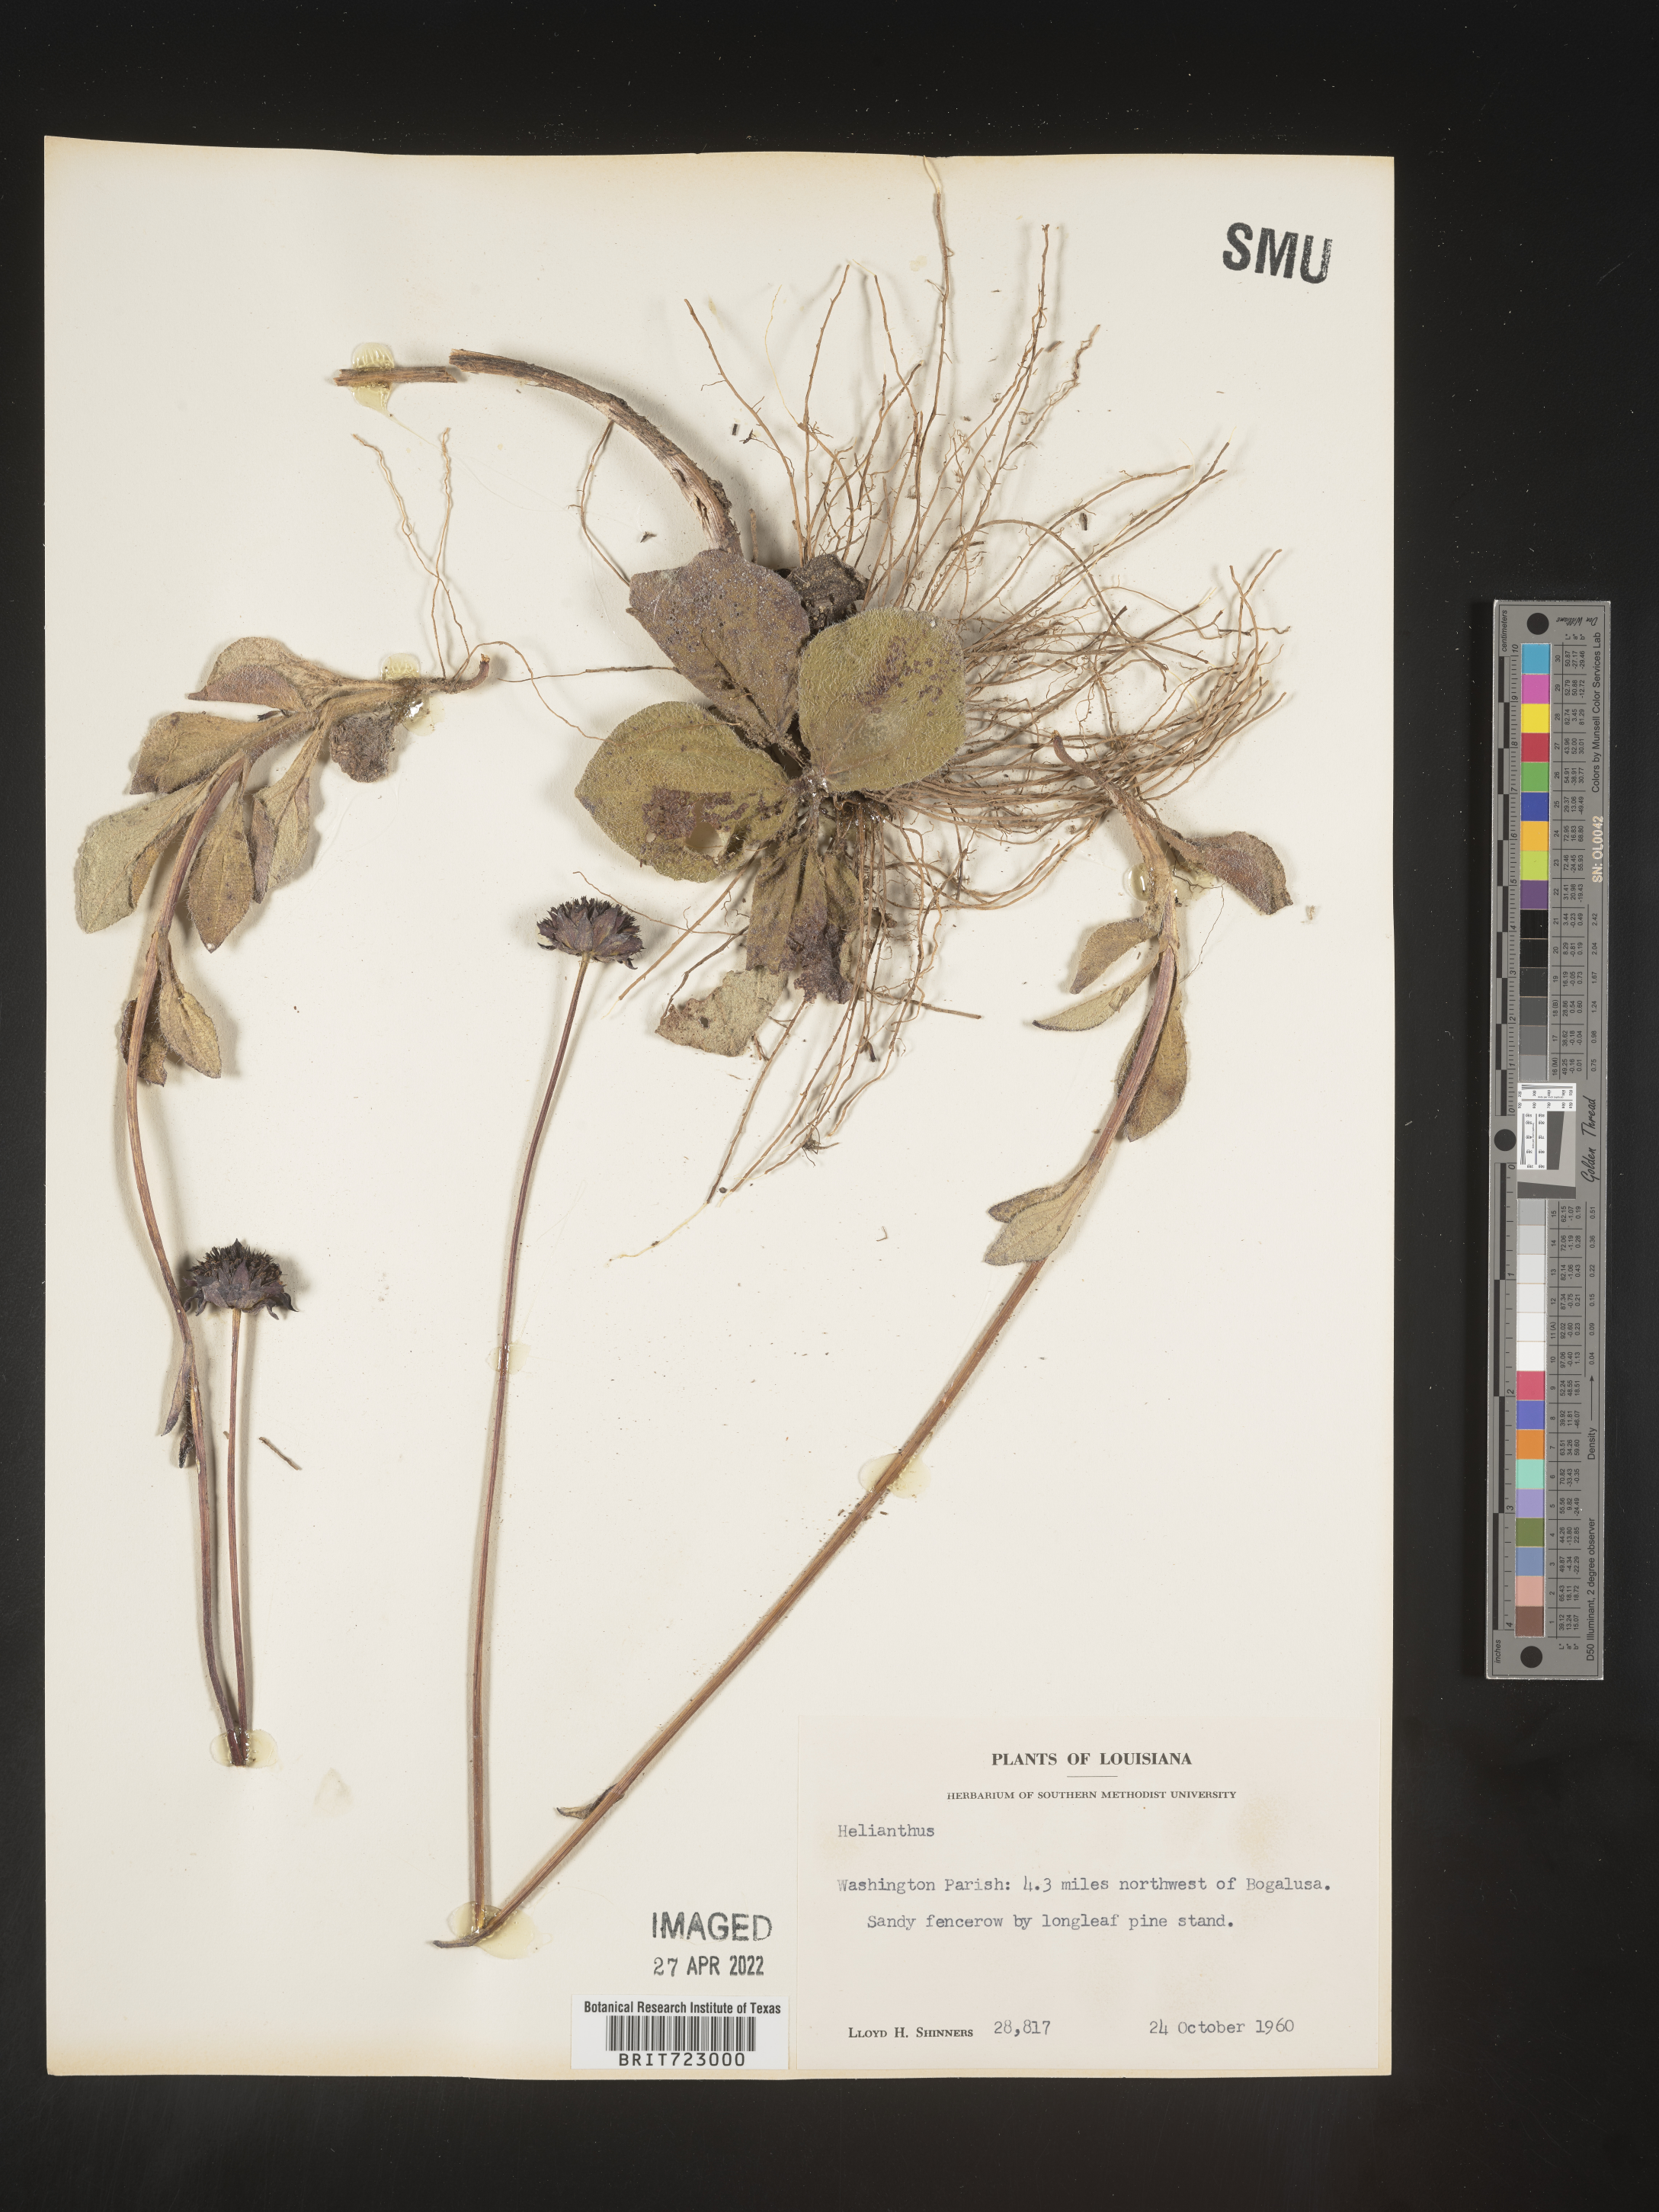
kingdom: Plantae
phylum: Tracheophyta
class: Magnoliopsida
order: Asterales
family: Asteraceae
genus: Helianthus
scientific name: Helianthus
